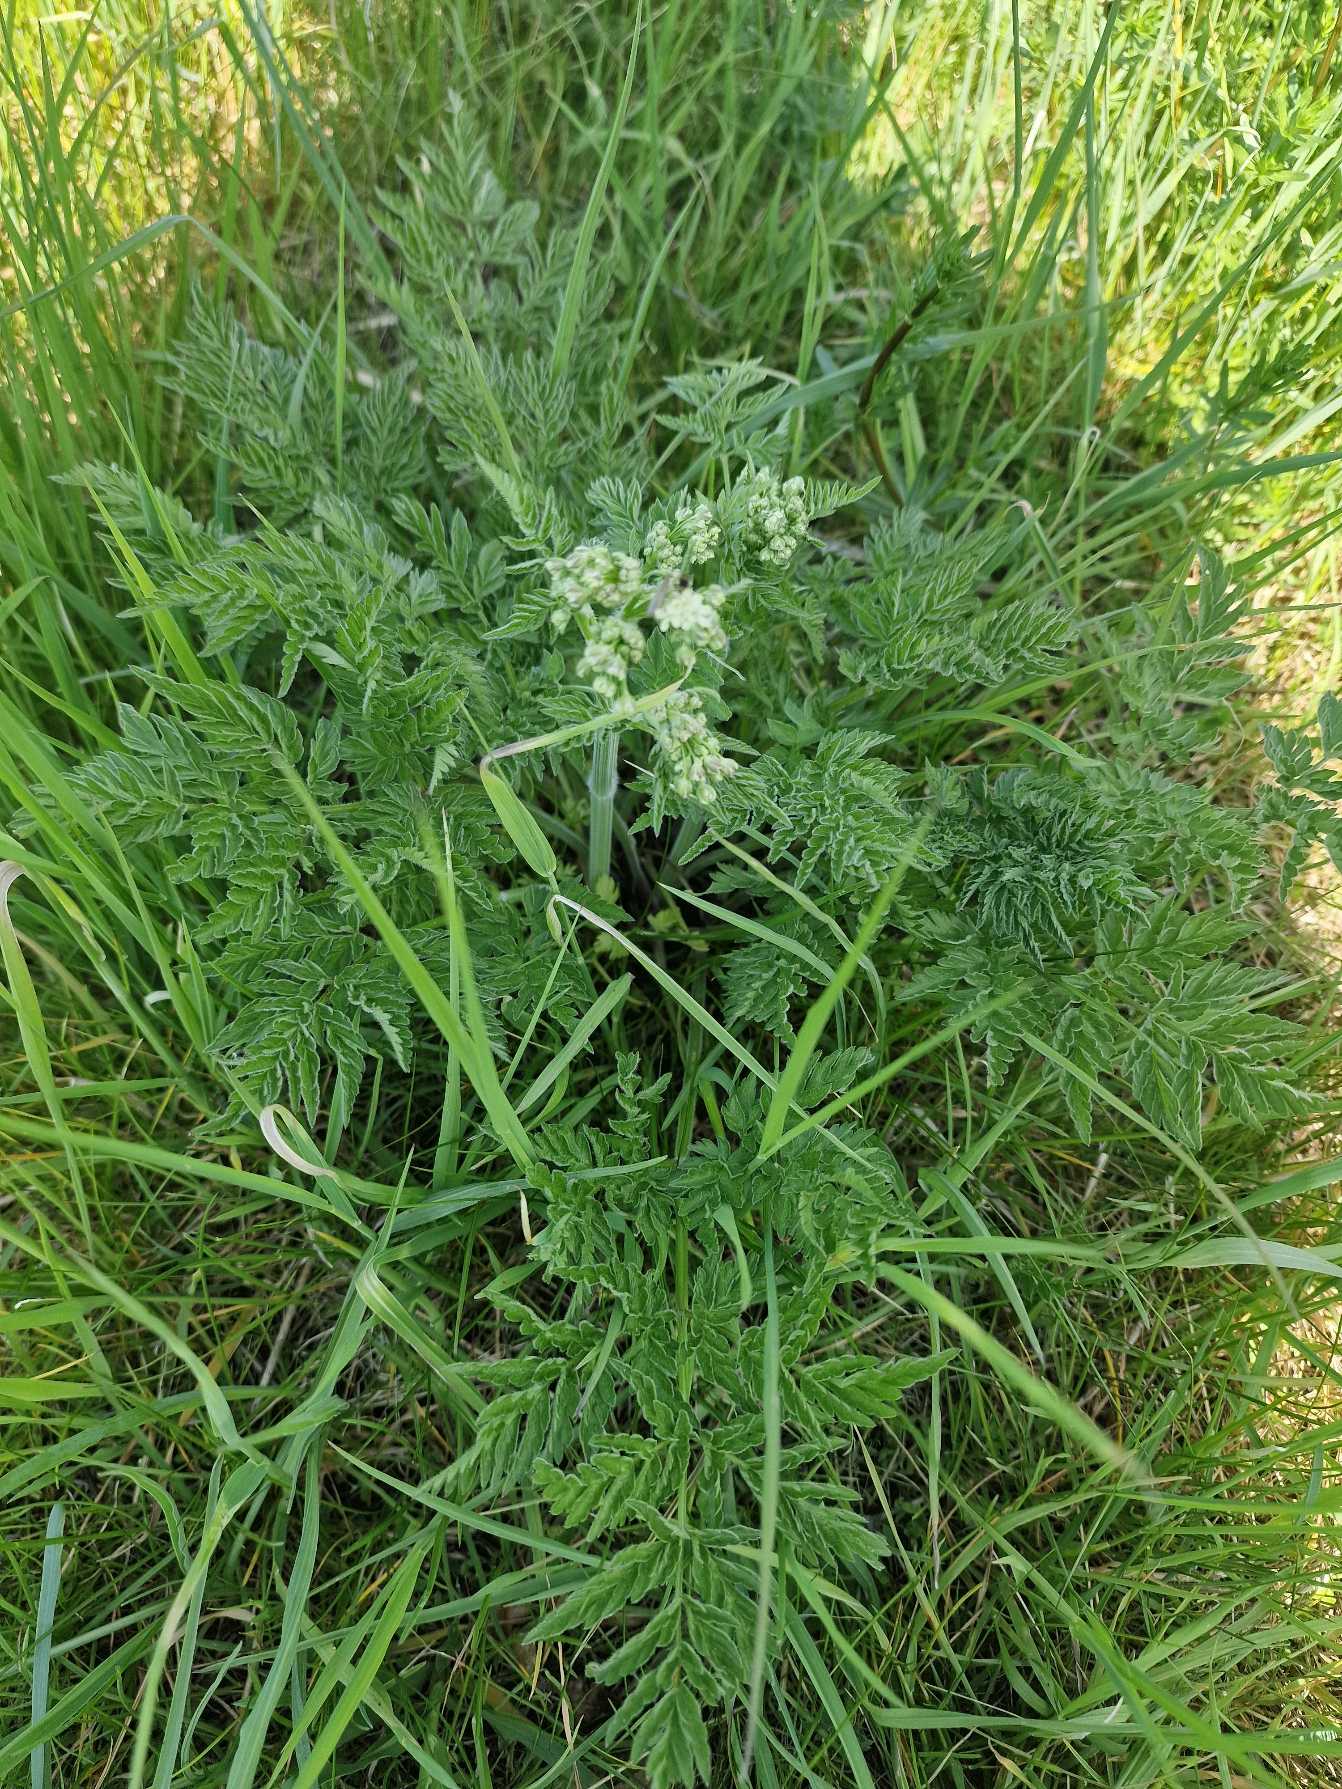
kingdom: Plantae
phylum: Tracheophyta
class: Magnoliopsida
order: Apiales
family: Apiaceae
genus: Anthriscus
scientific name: Anthriscus sylvestris
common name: Vild kørvel
